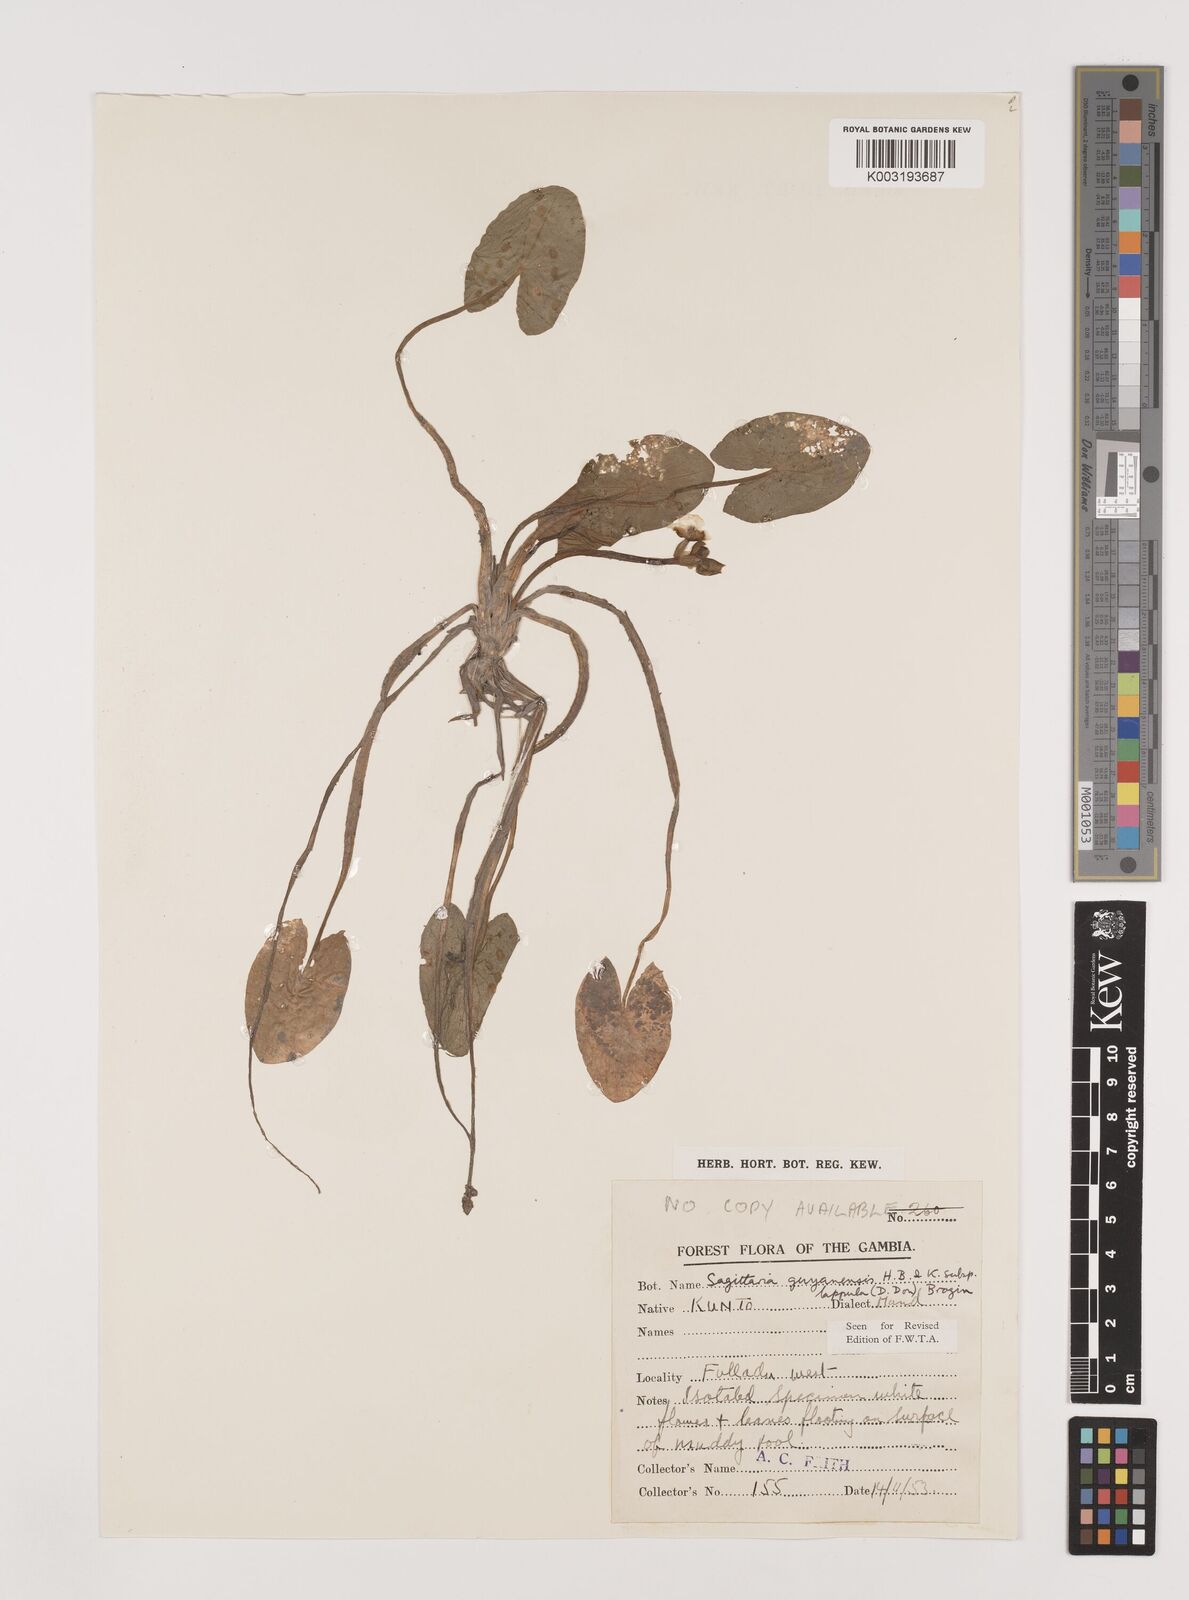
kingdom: Plantae
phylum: Tracheophyta
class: Liliopsida
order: Alismatales
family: Alismataceae
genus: Sagittaria
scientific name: Sagittaria guayanensis
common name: Guyanese arrowhead
